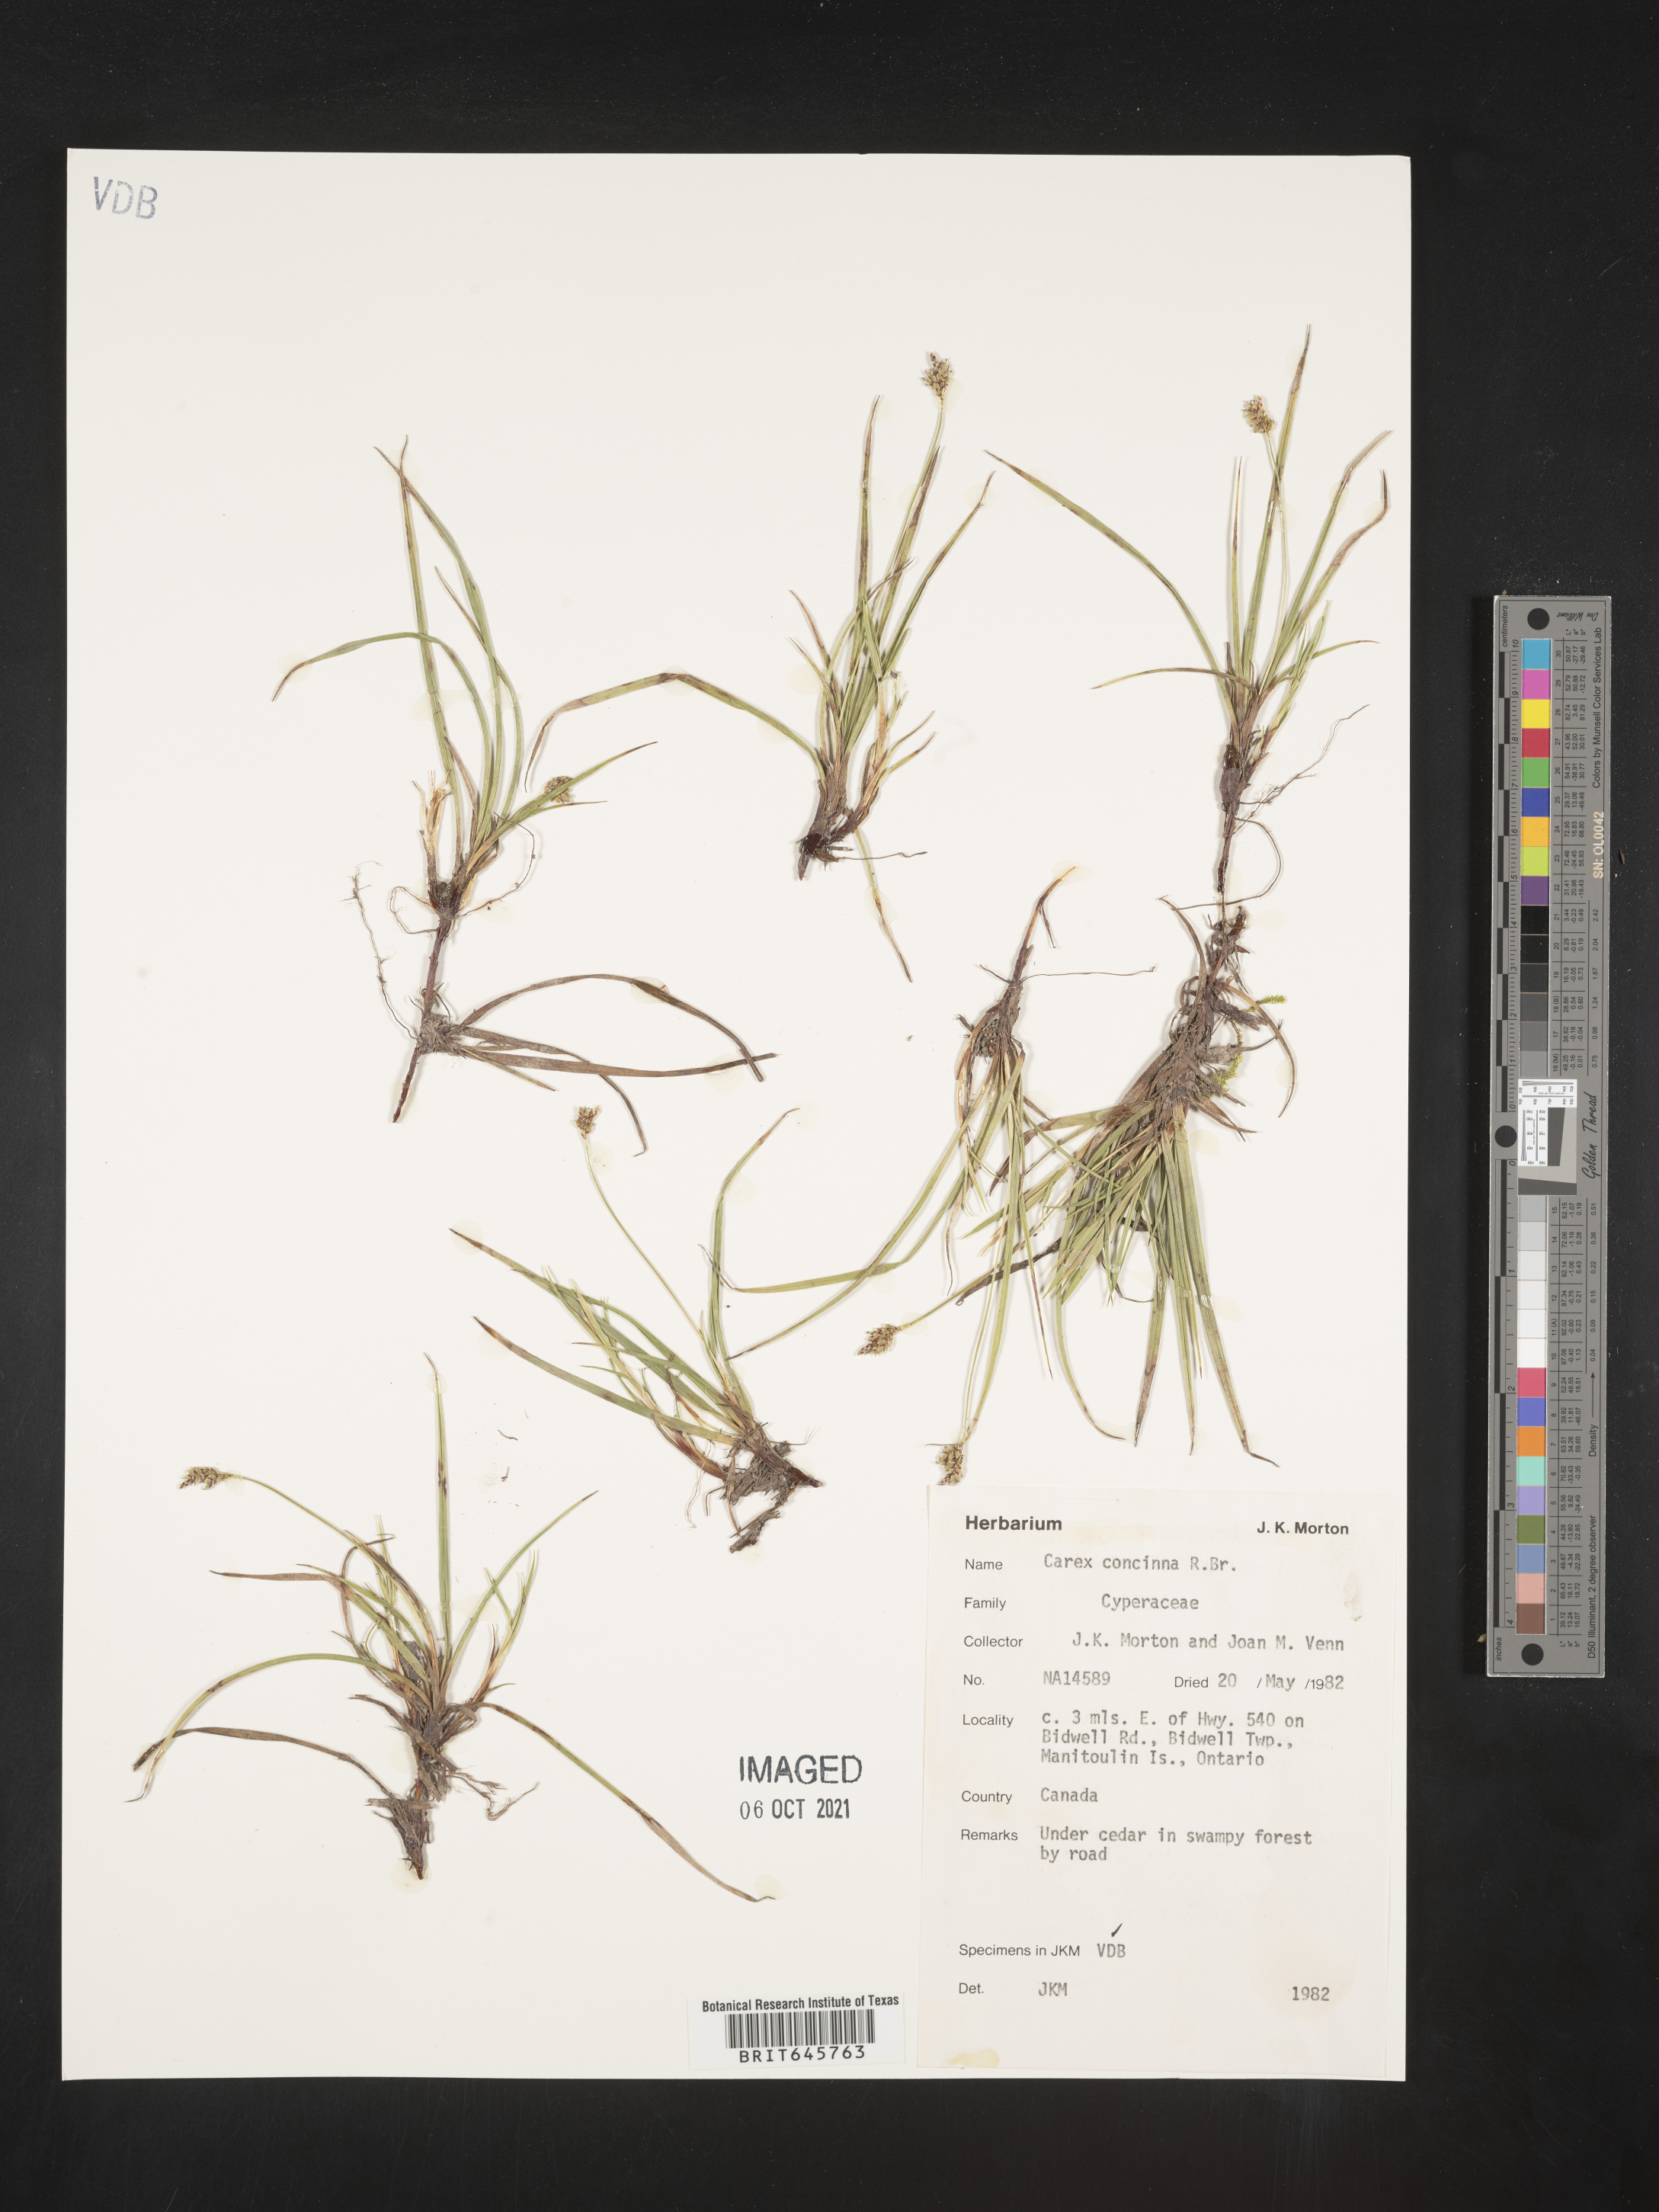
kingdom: Plantae
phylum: Tracheophyta
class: Liliopsida
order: Poales
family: Cyperaceae
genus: Carex
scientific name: Carex concinna
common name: Beautiful sedge
